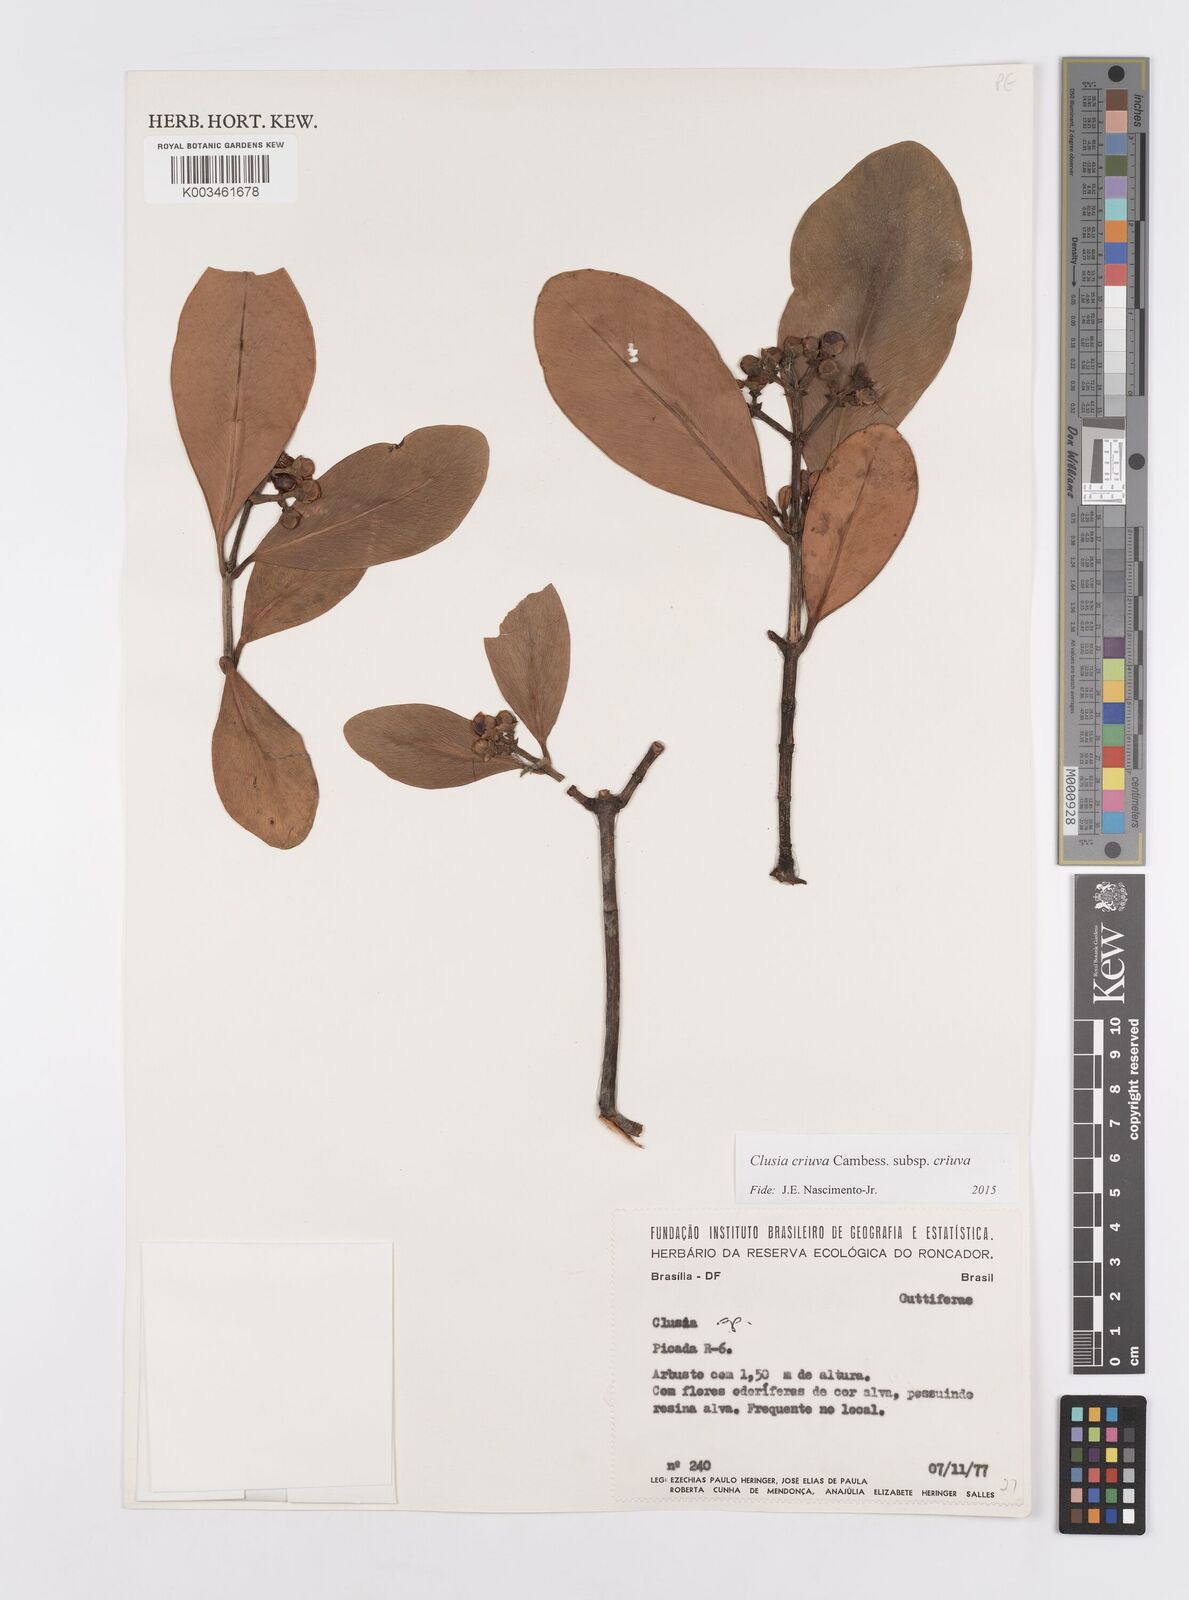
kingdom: Plantae
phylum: Tracheophyta
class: Magnoliopsida
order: Malpighiales
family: Clusiaceae
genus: Clusia
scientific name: Clusia criuva
